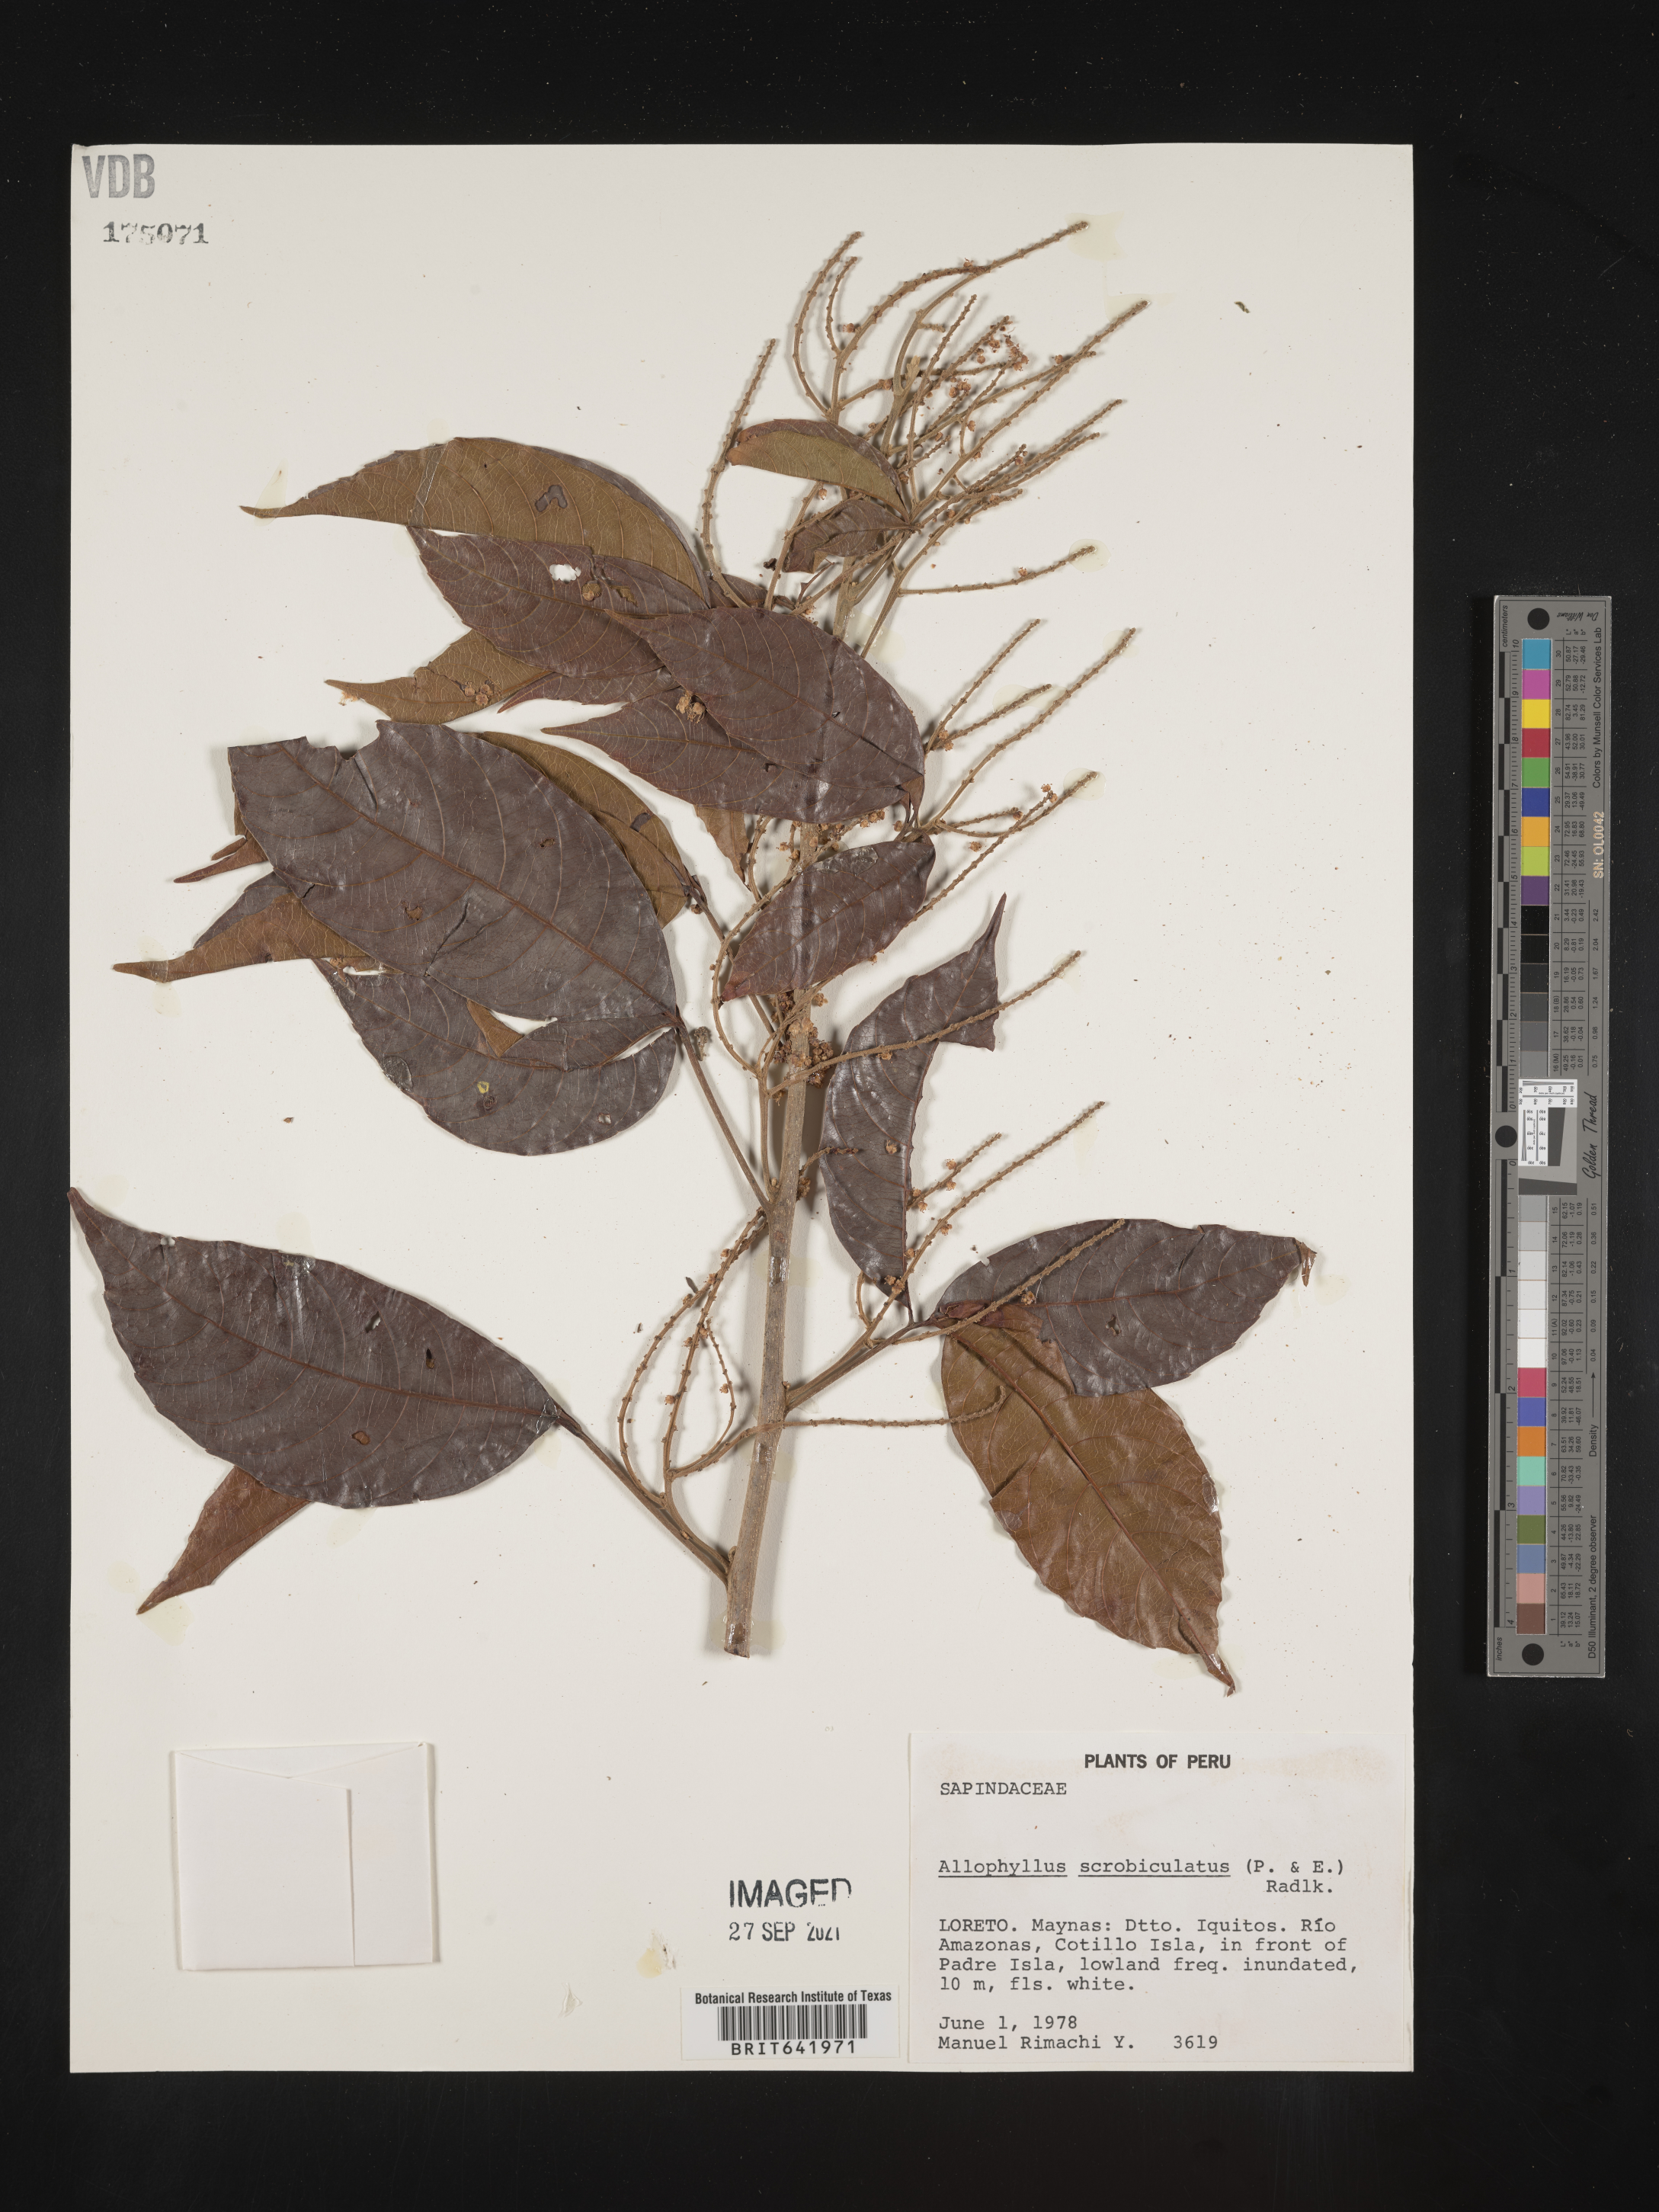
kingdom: Plantae
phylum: Tracheophyta
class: Magnoliopsida
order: Sapindales
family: Sapindaceae
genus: Allophylus
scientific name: Allophylus
